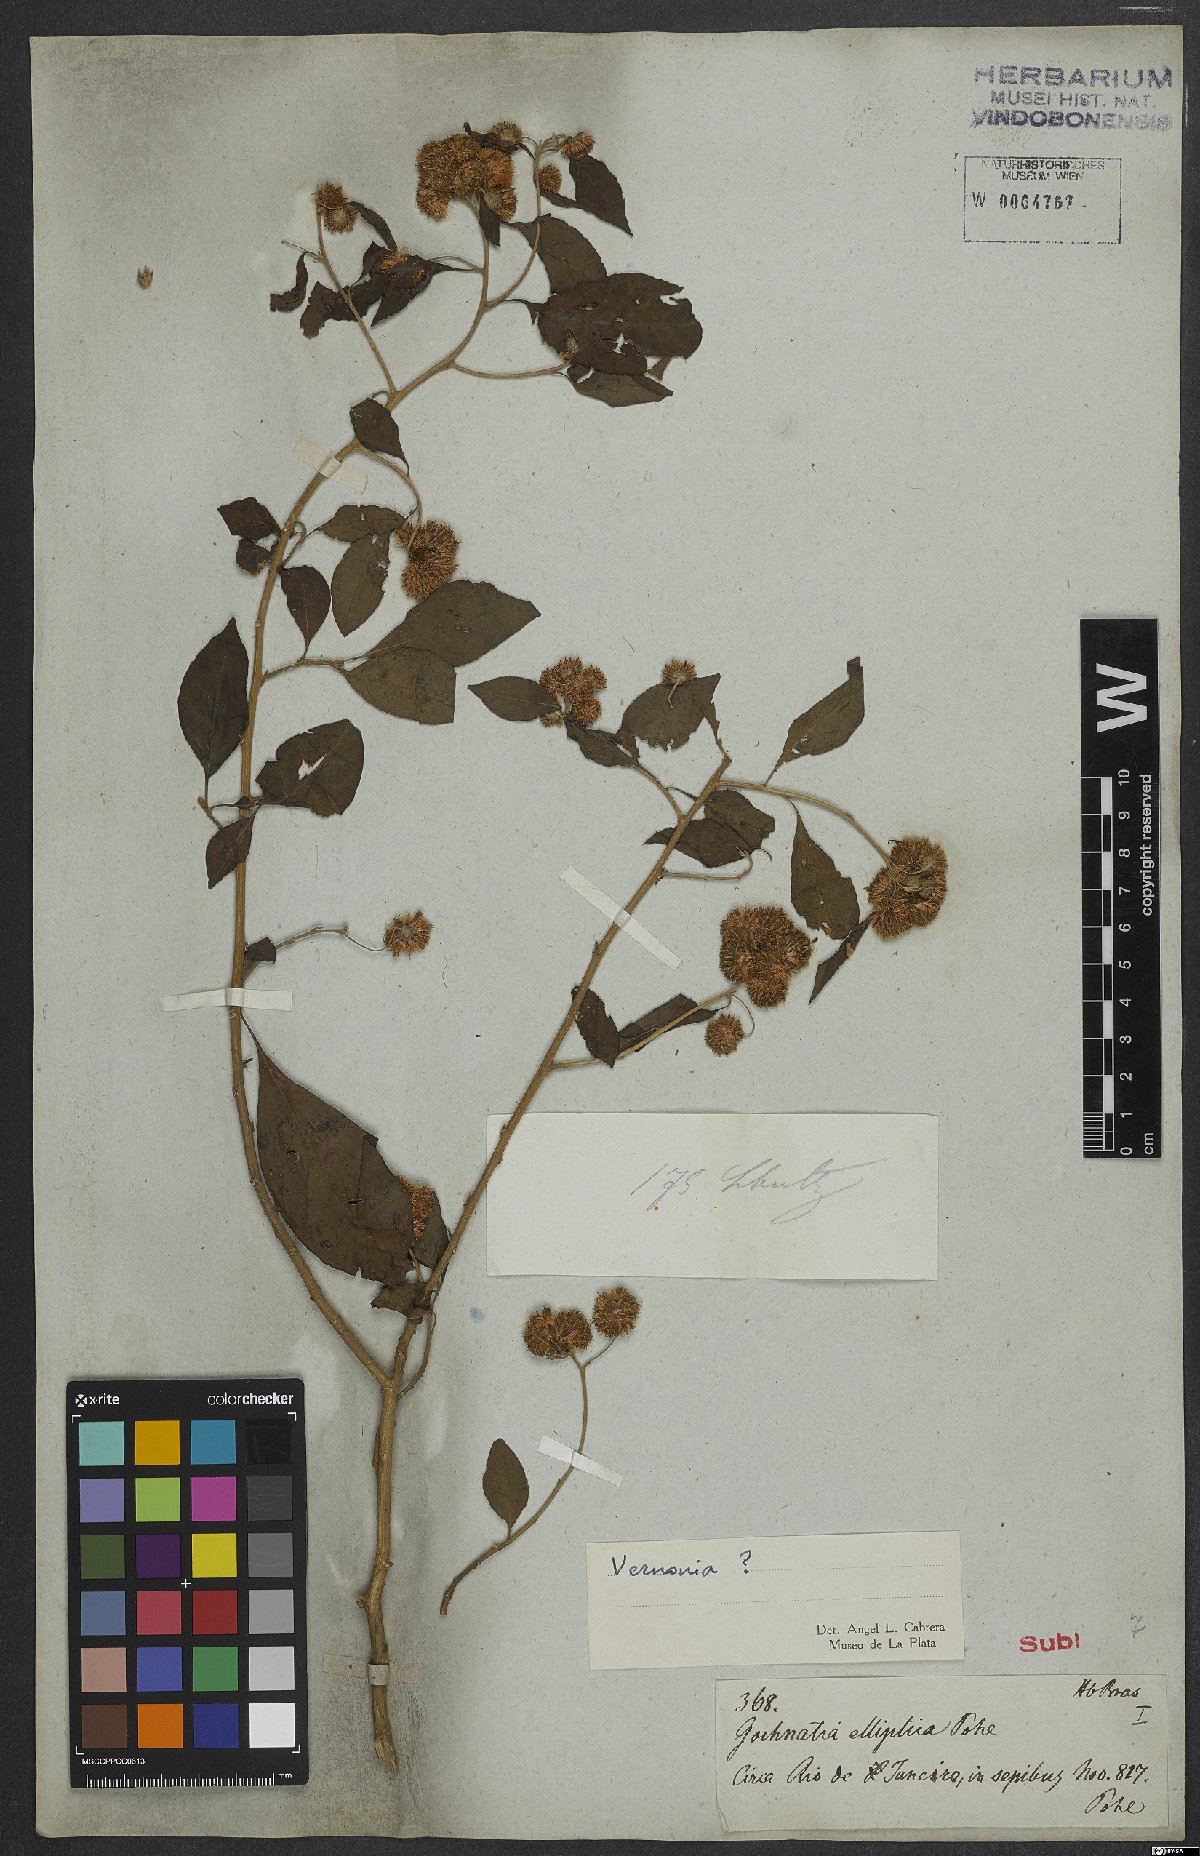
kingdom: Plantae
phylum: Tracheophyta
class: Magnoliopsida
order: Asterales
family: Asteraceae
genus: Vernonia
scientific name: Vernonia
